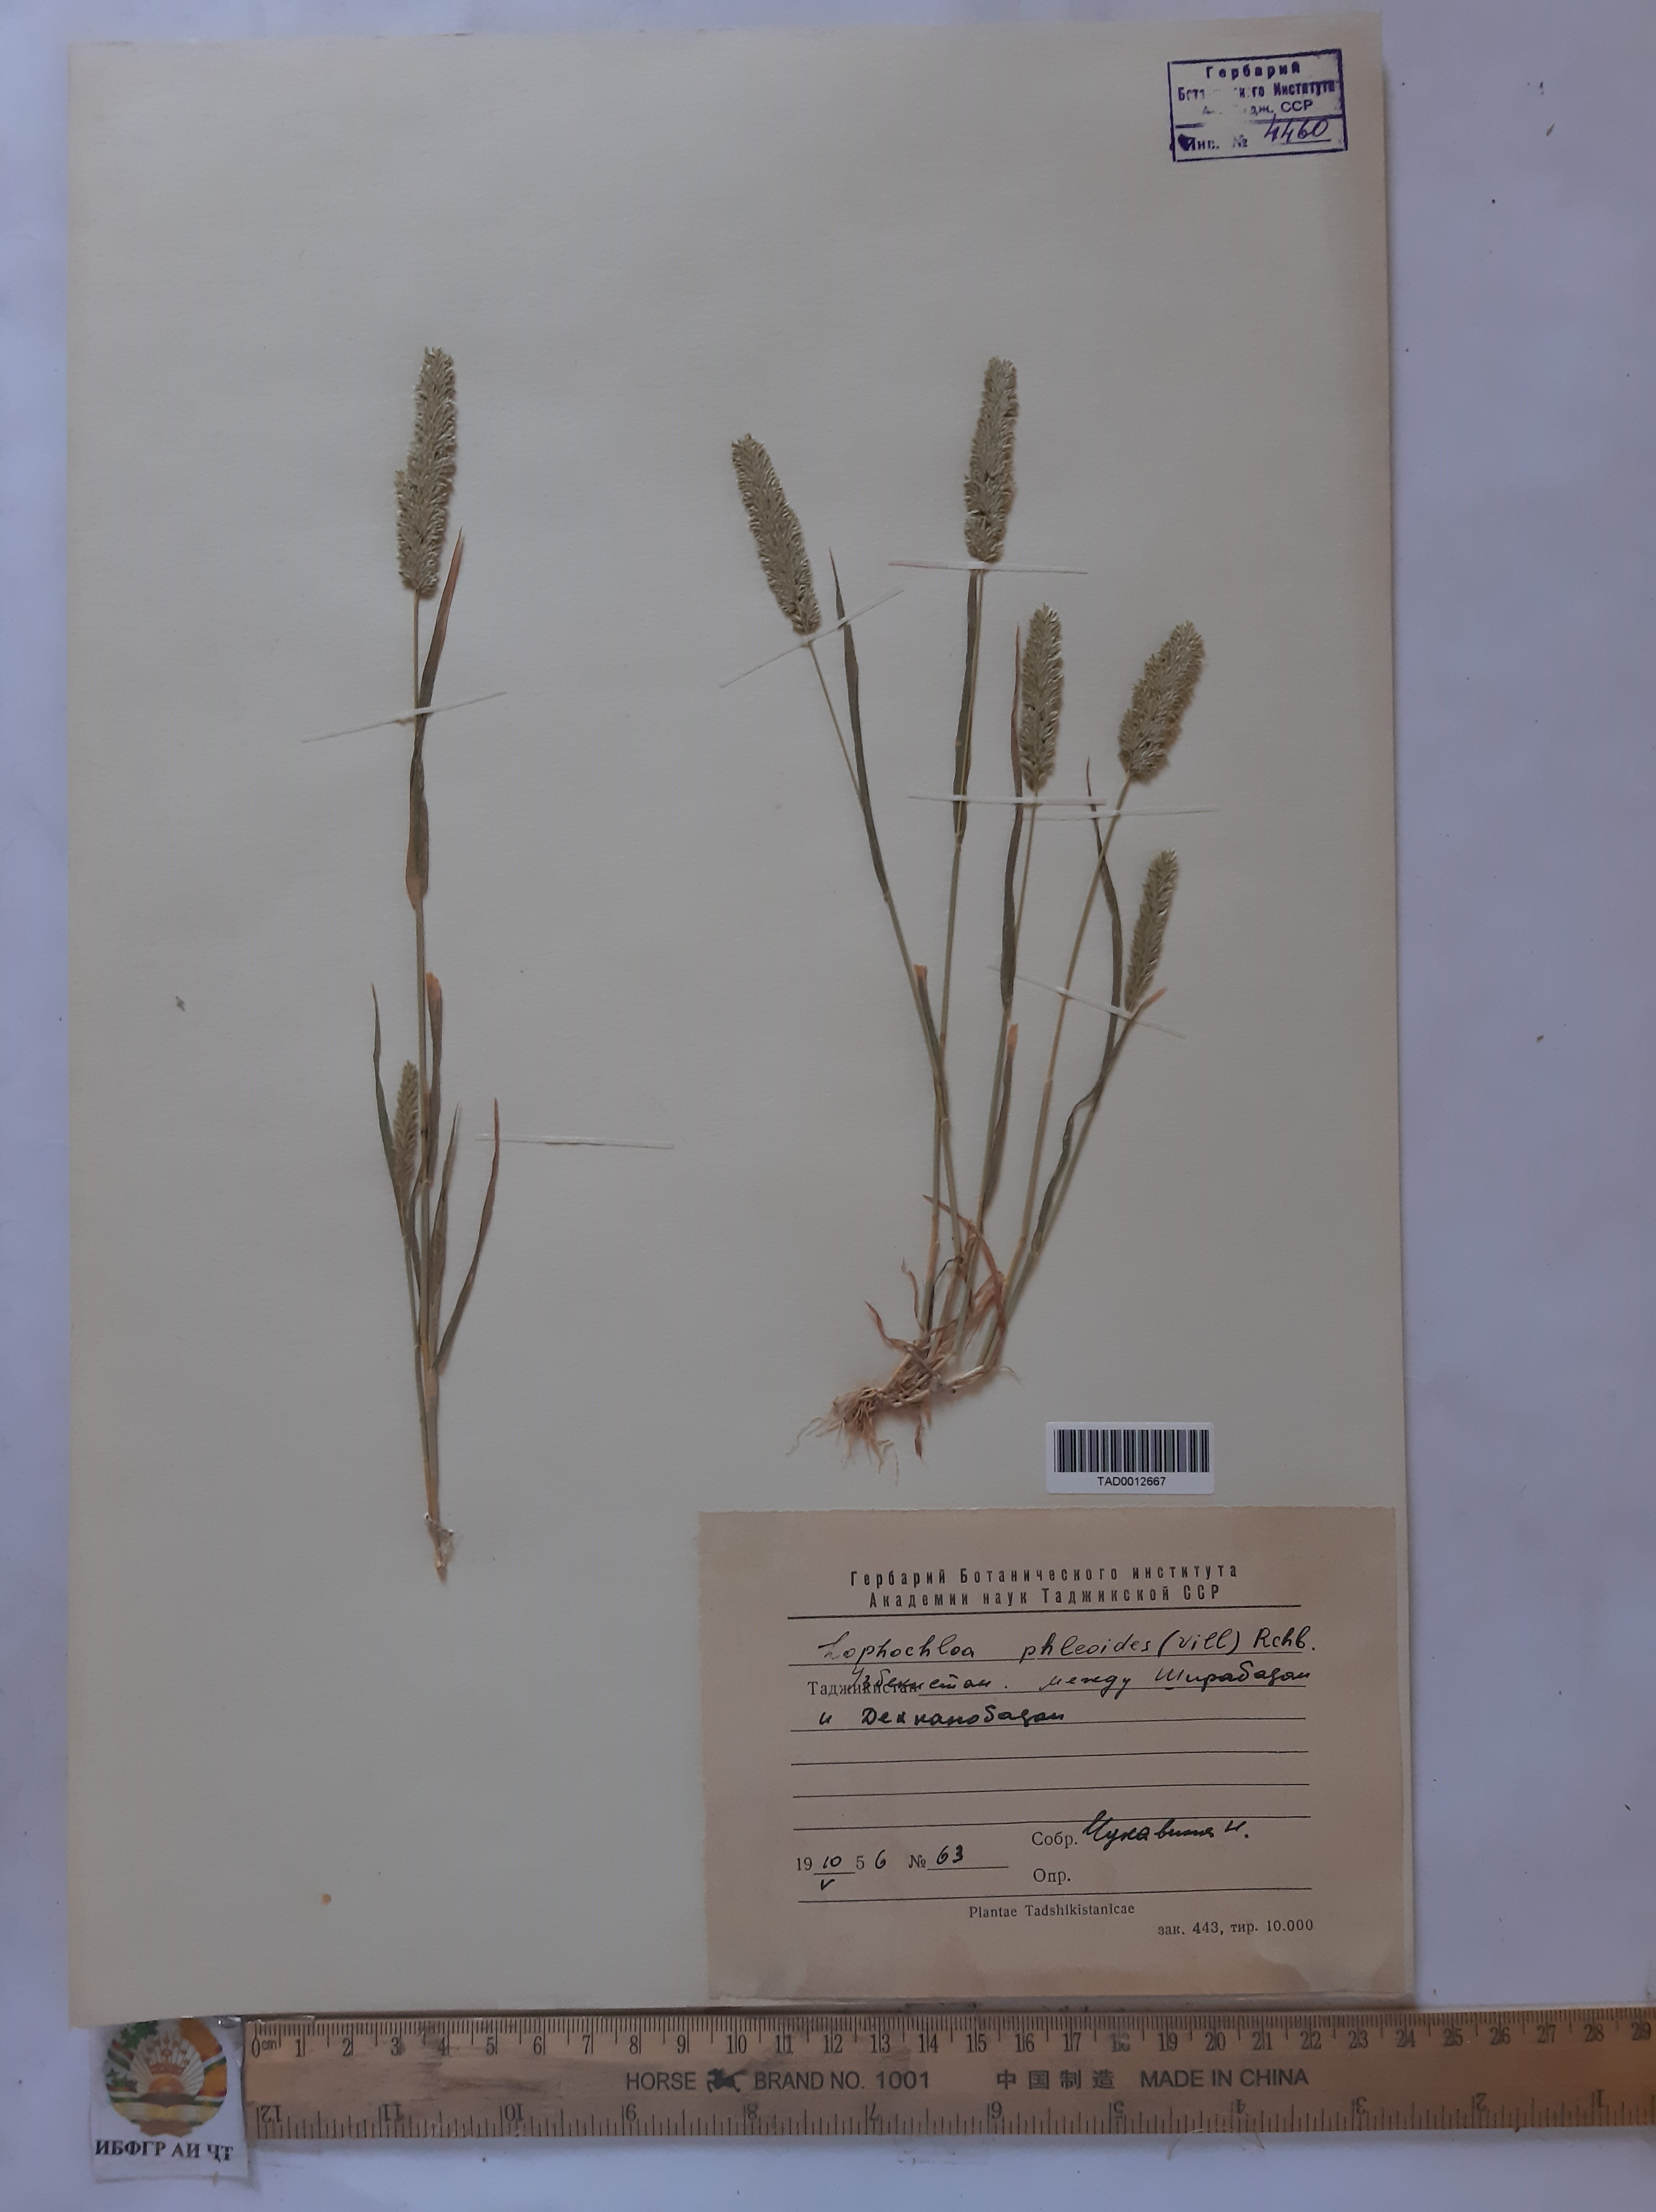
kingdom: Plantae
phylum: Tracheophyta
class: Liliopsida
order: Poales
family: Poaceae
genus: Rostraria
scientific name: Rostraria cristata
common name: Mediterranean hair-grass
